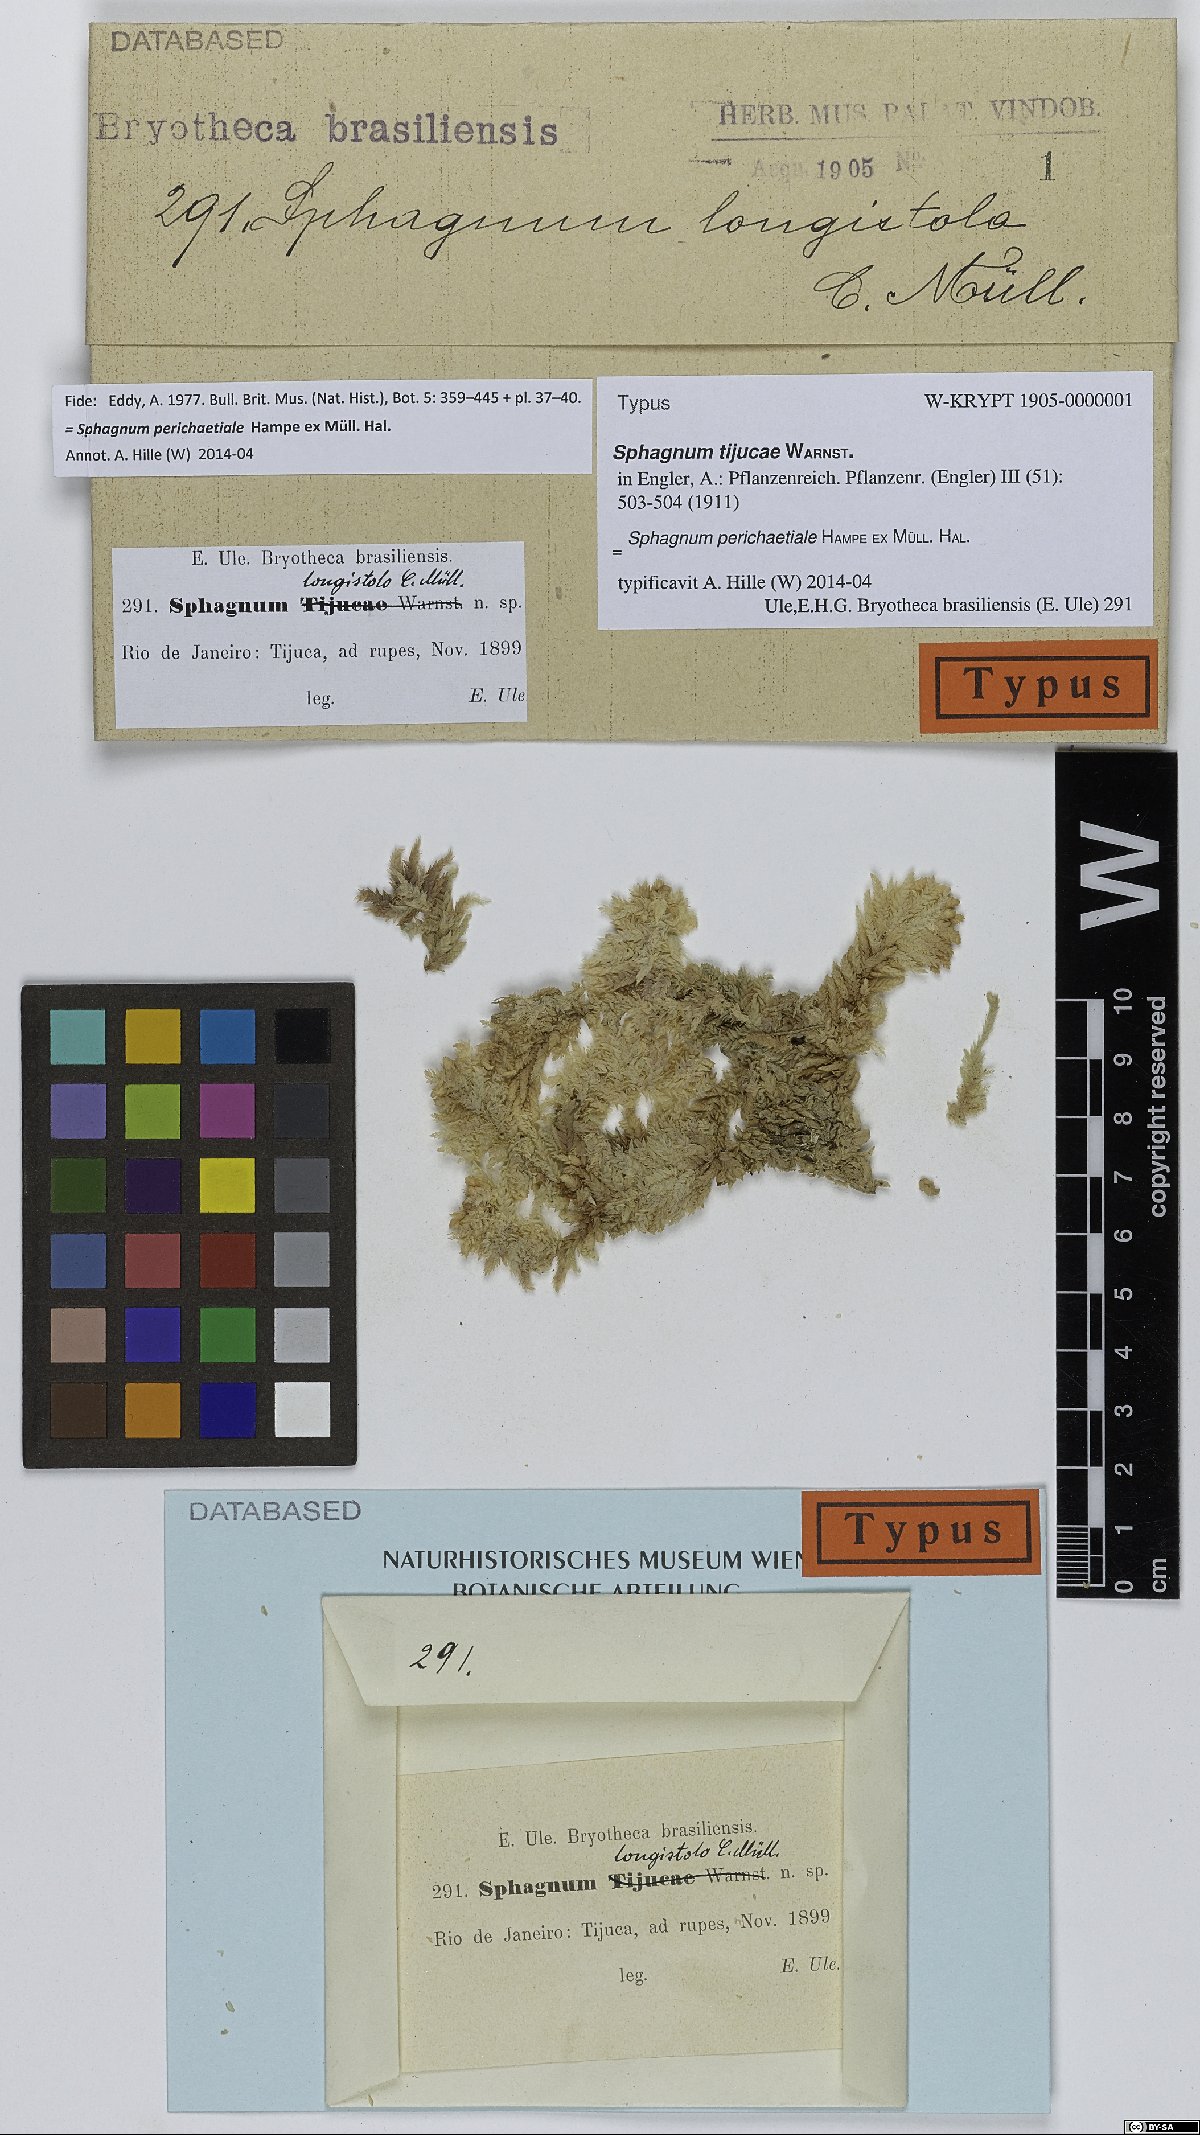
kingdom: Plantae
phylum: Bryophyta
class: Sphagnopsida
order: Sphagnales
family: Sphagnaceae
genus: Sphagnum
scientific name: Sphagnum perichaetiale
